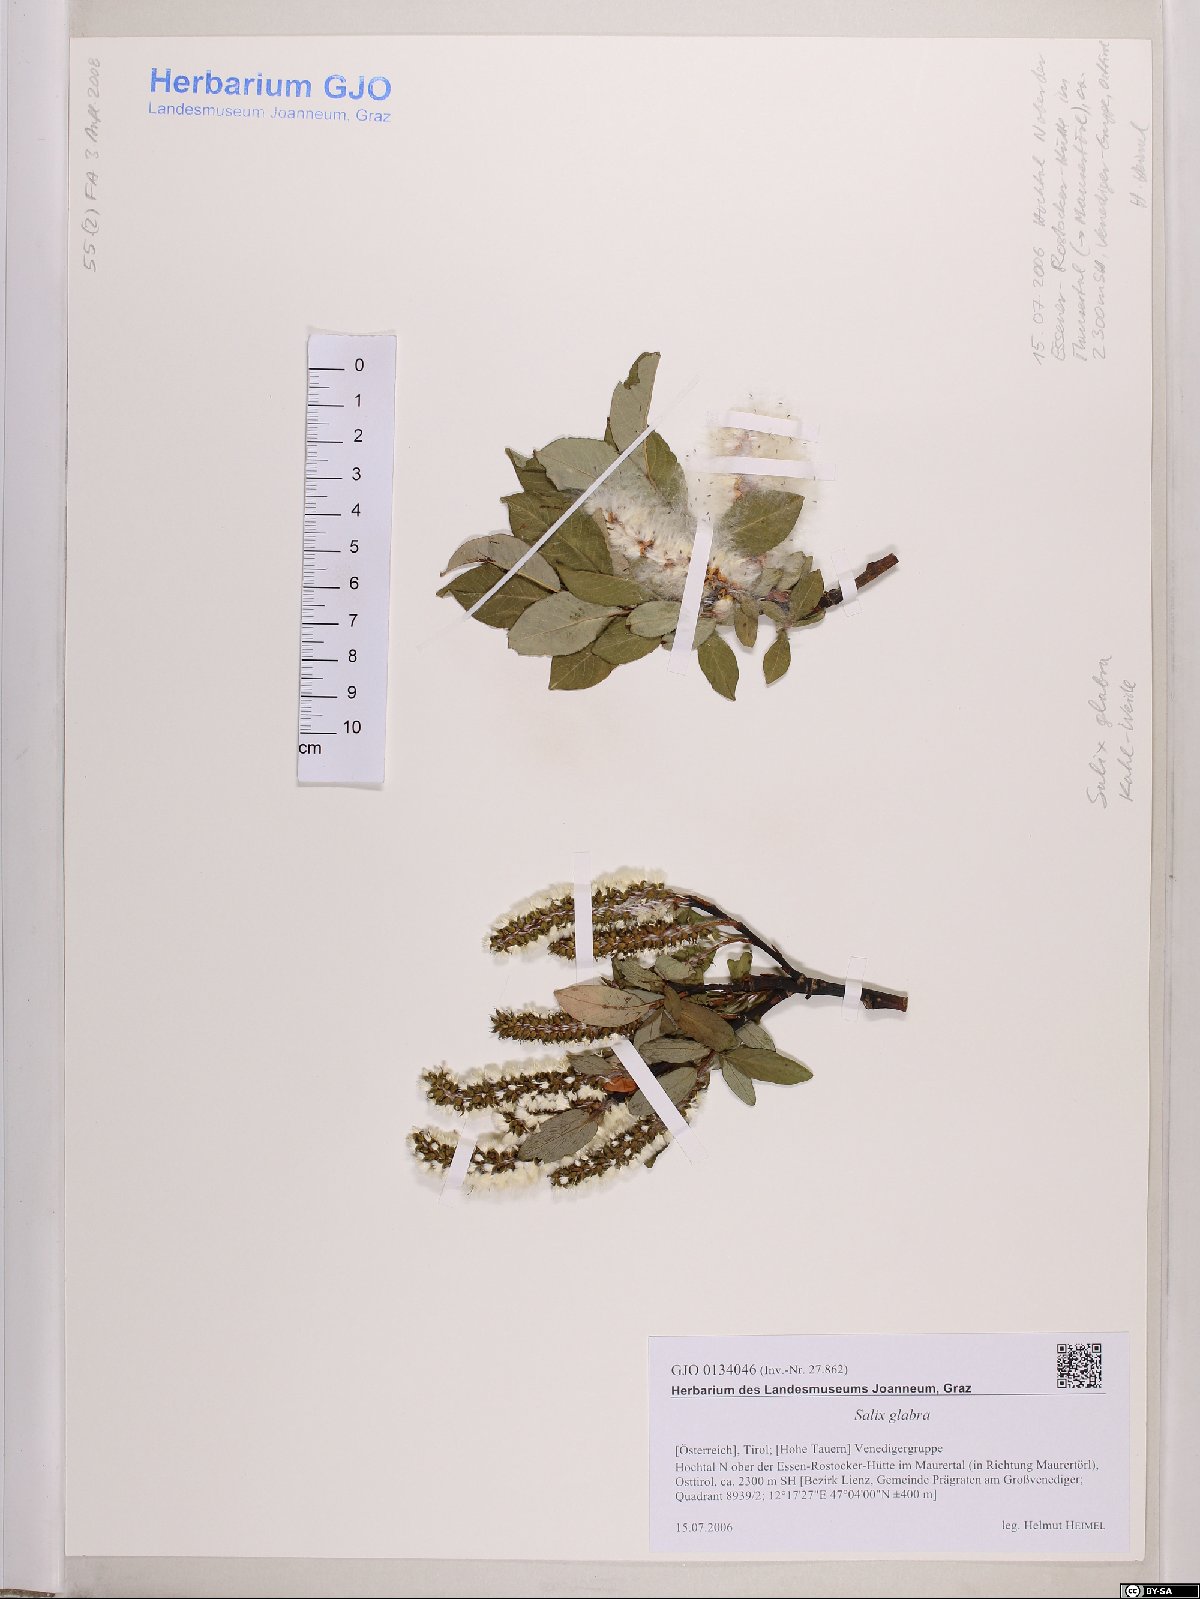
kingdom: Plantae
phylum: Tracheophyta
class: Magnoliopsida
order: Malpighiales
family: Salicaceae
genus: Salix
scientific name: Salix glabra
